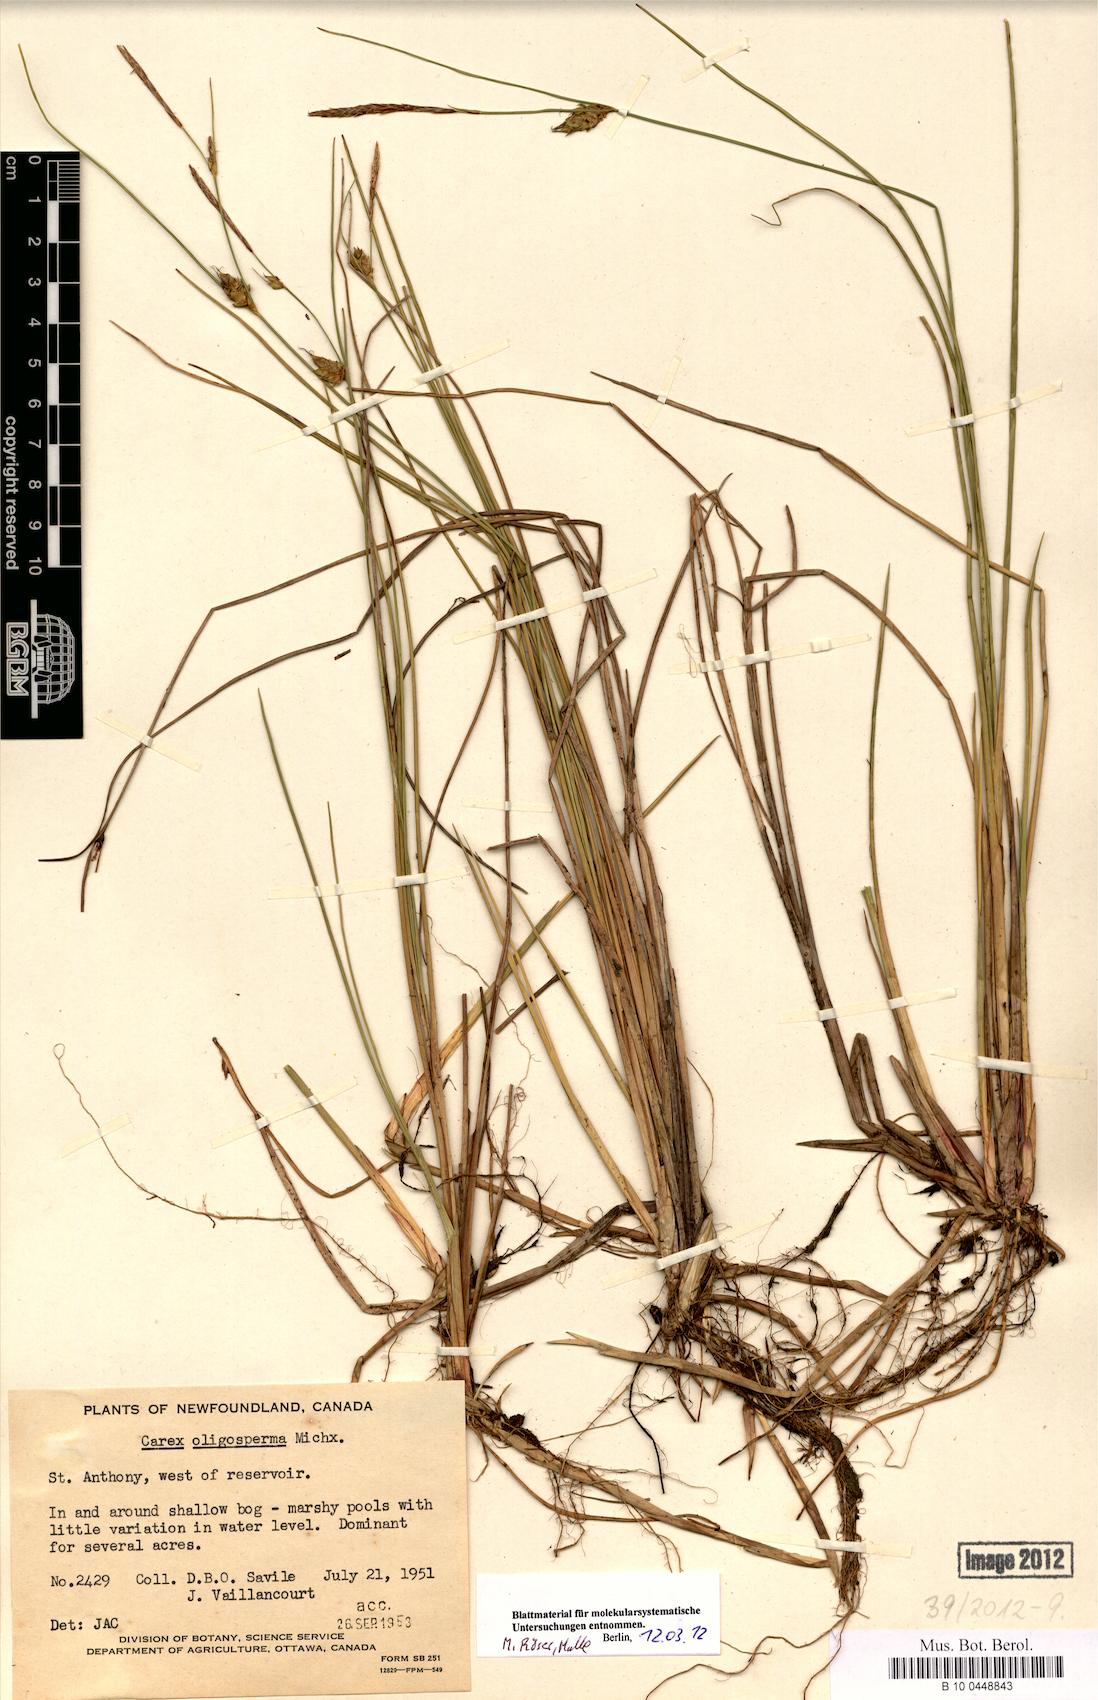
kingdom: Plantae
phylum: Tracheophyta
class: Liliopsida
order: Poales
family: Cyperaceae
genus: Carex
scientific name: Carex oligosperma
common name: Few-seed sedge
